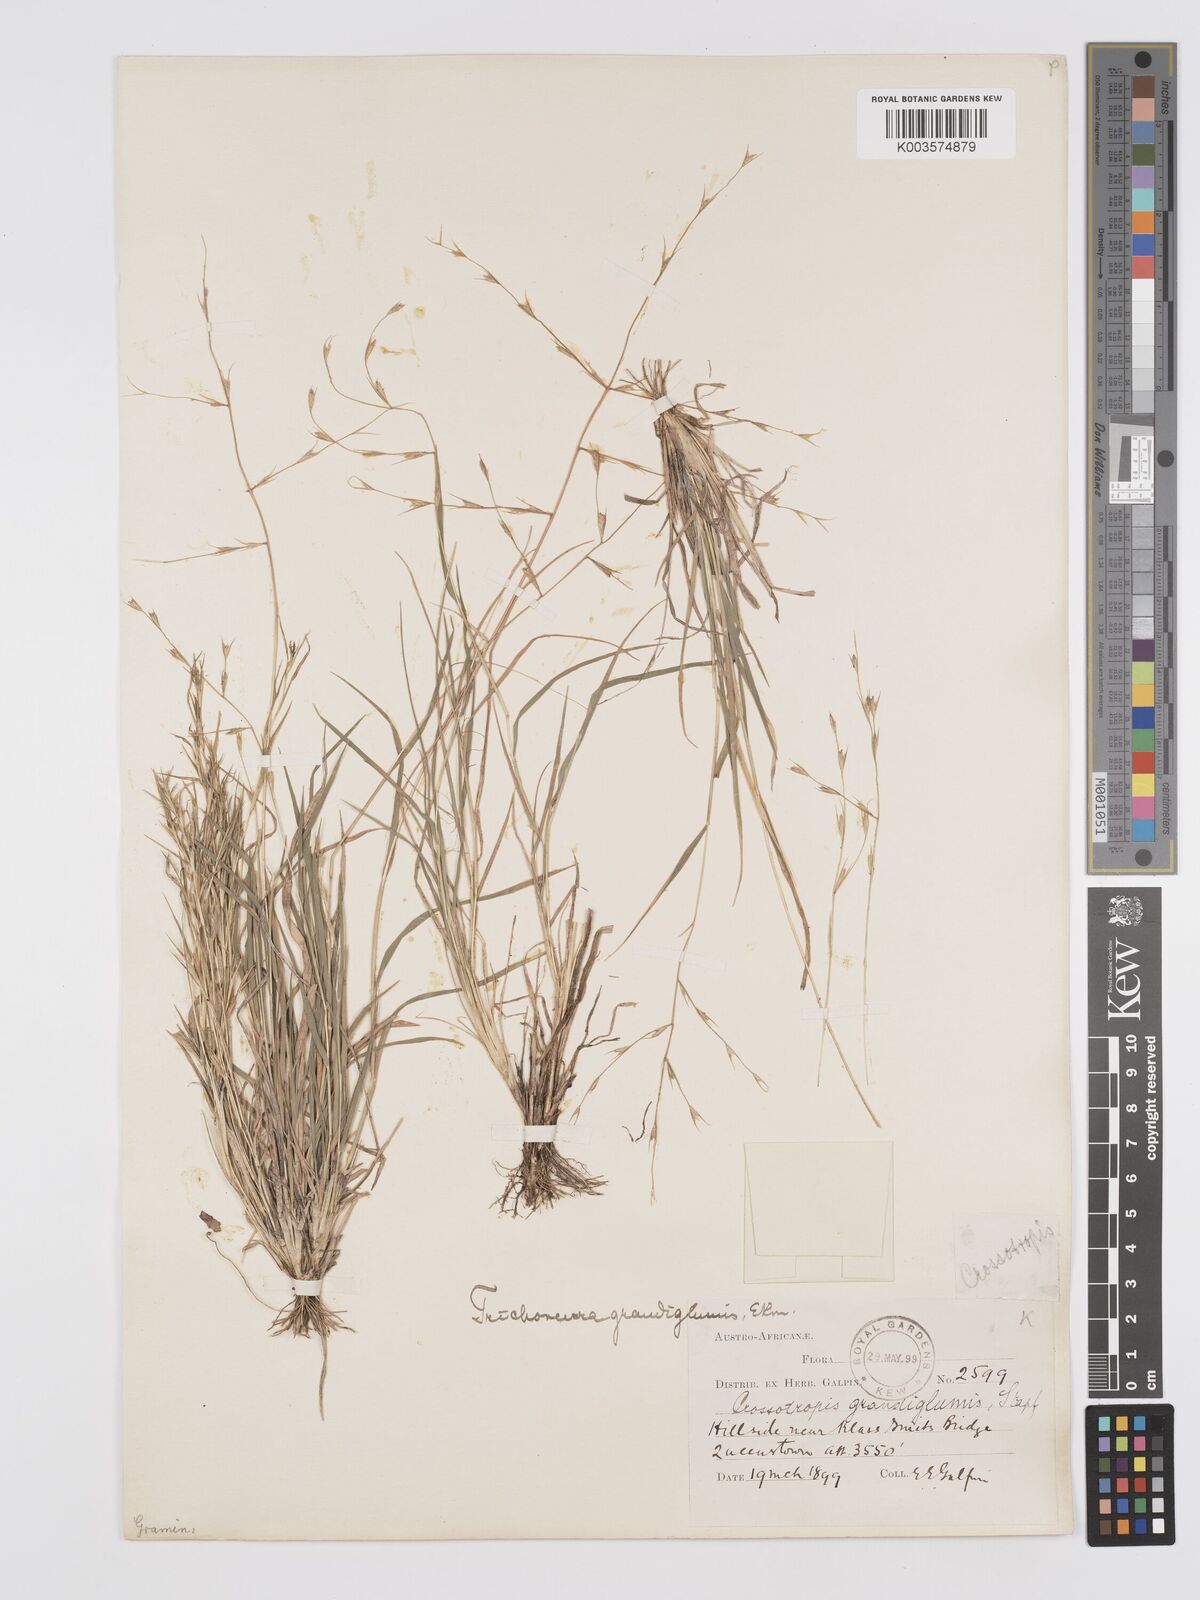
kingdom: Plantae
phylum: Tracheophyta
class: Liliopsida
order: Poales
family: Poaceae
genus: Trichoneura
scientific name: Trichoneura grandiglumis
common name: Rolling grass
